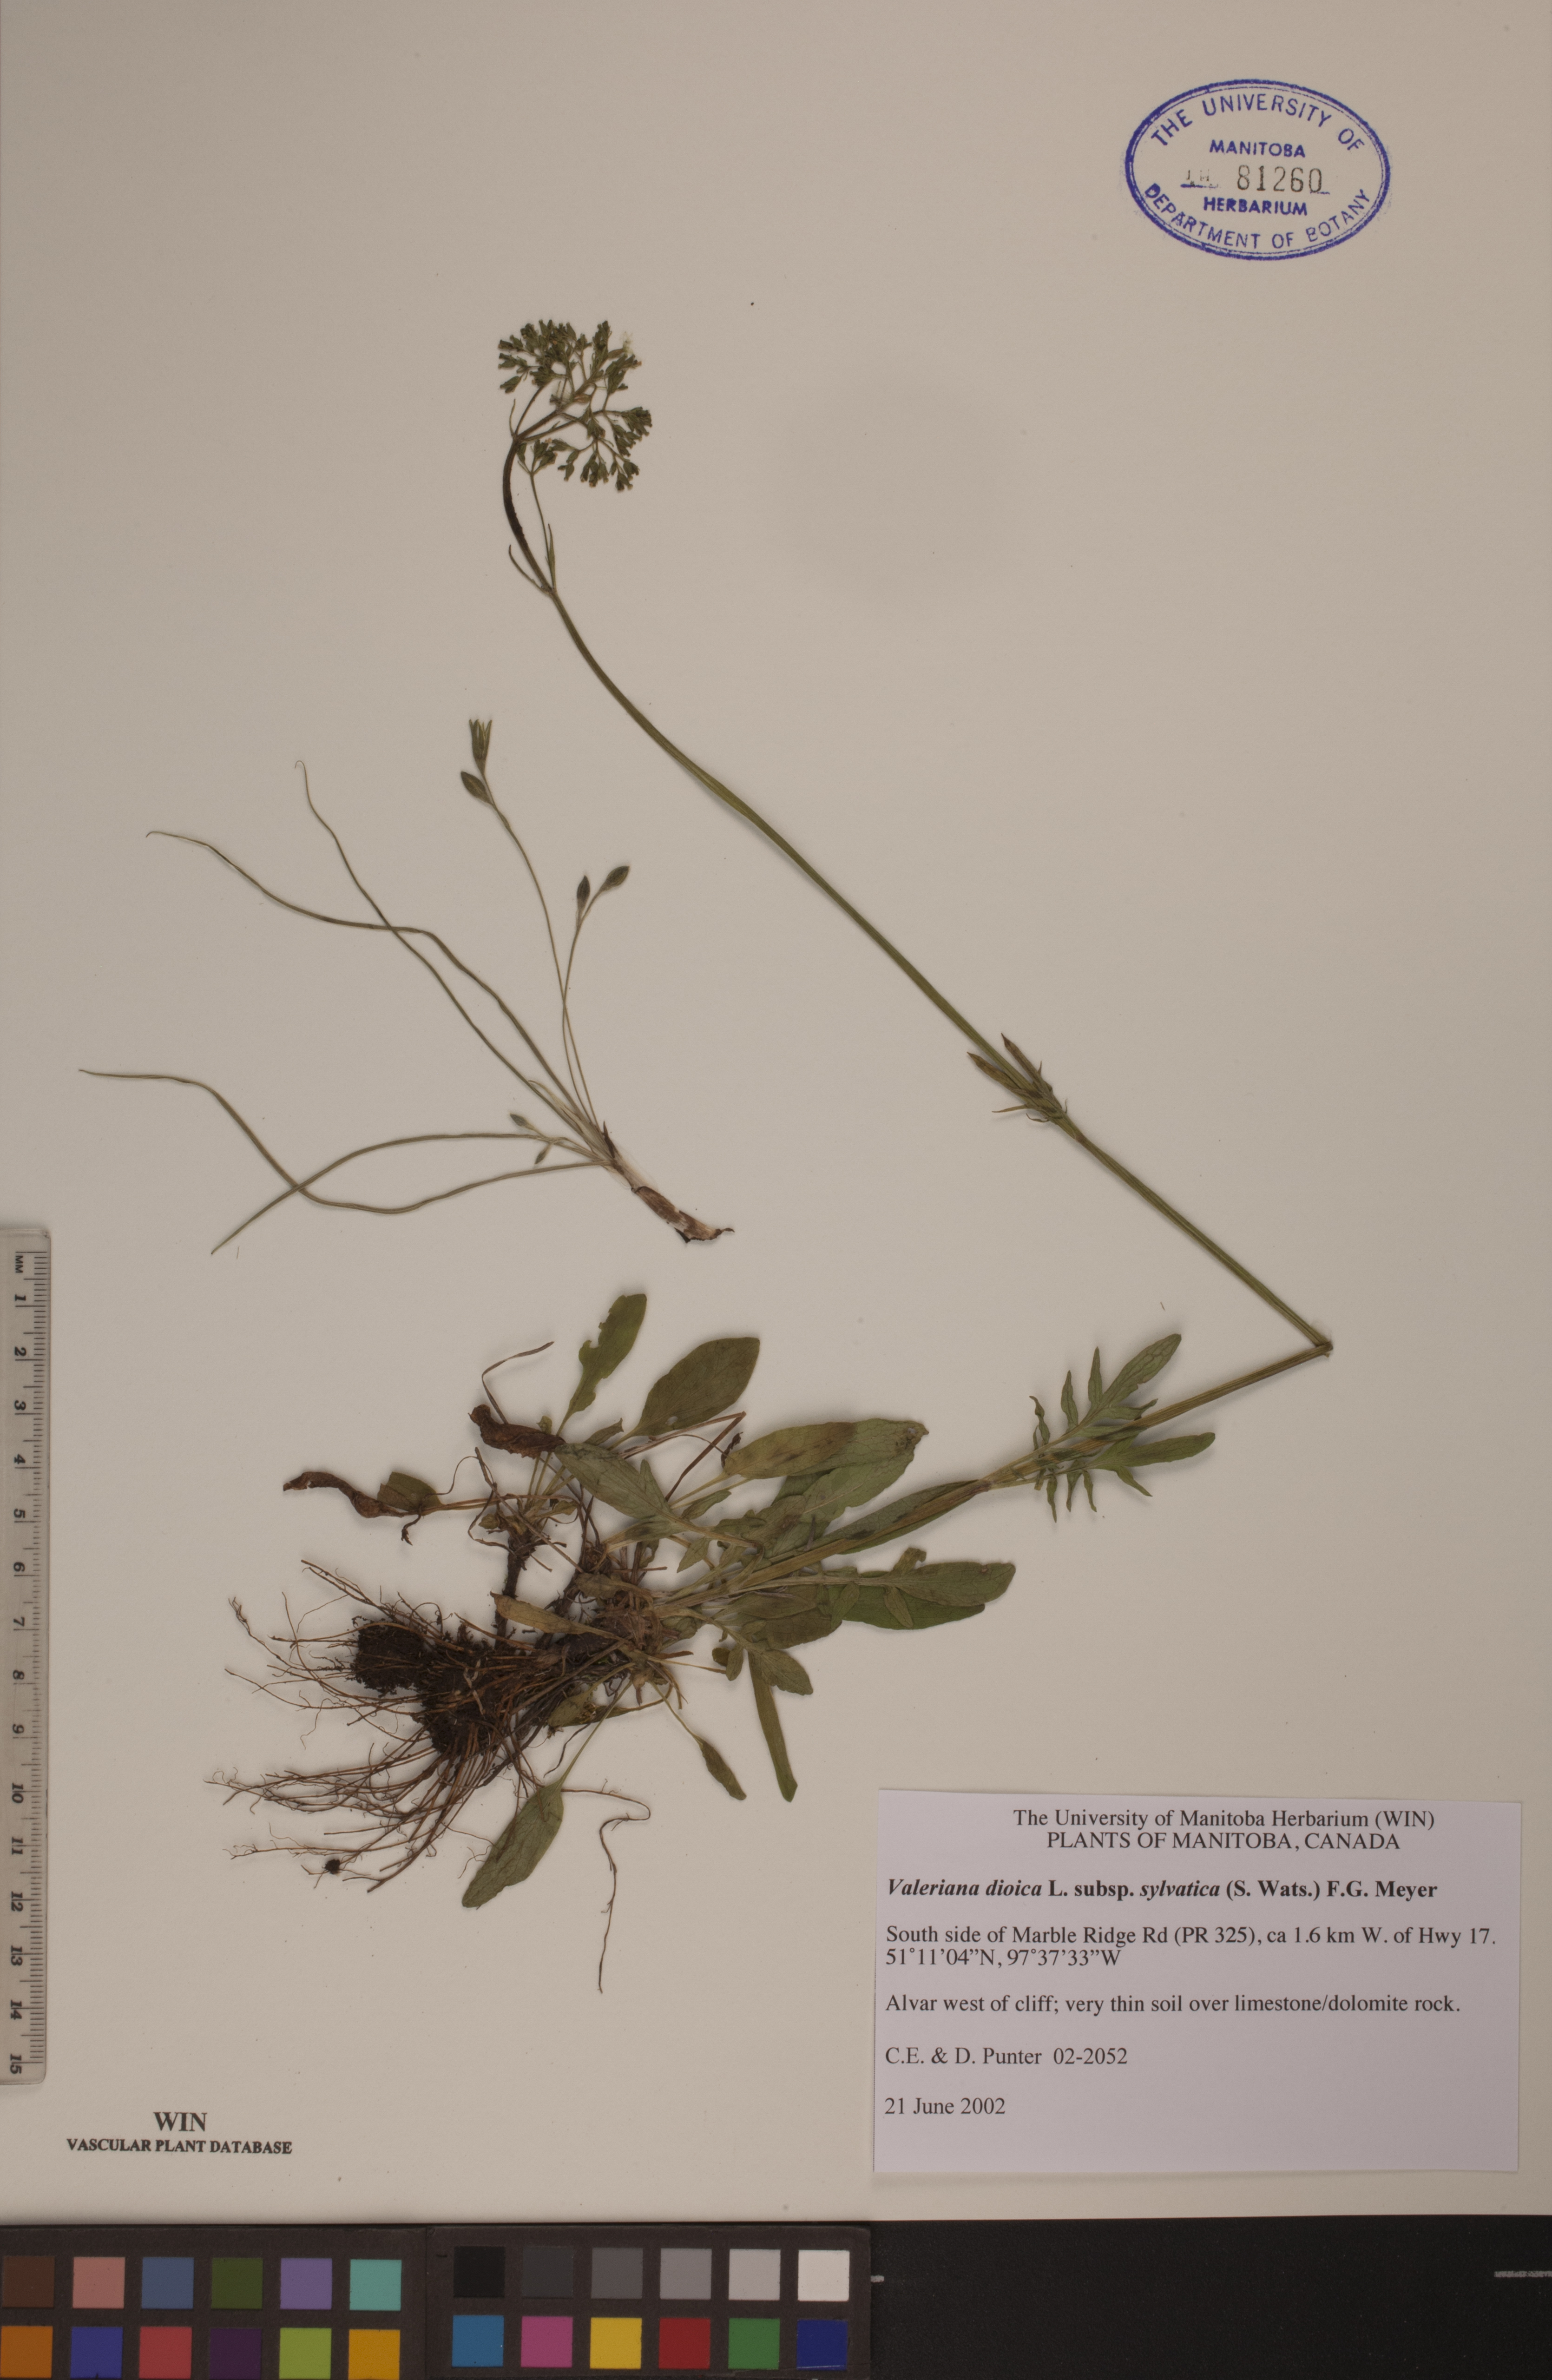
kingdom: Plantae
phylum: Tracheophyta
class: Magnoliopsida
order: Dipsacales
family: Caprifoliaceae
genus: Valeriana
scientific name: Valeriana dioica
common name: Marsh valerian
